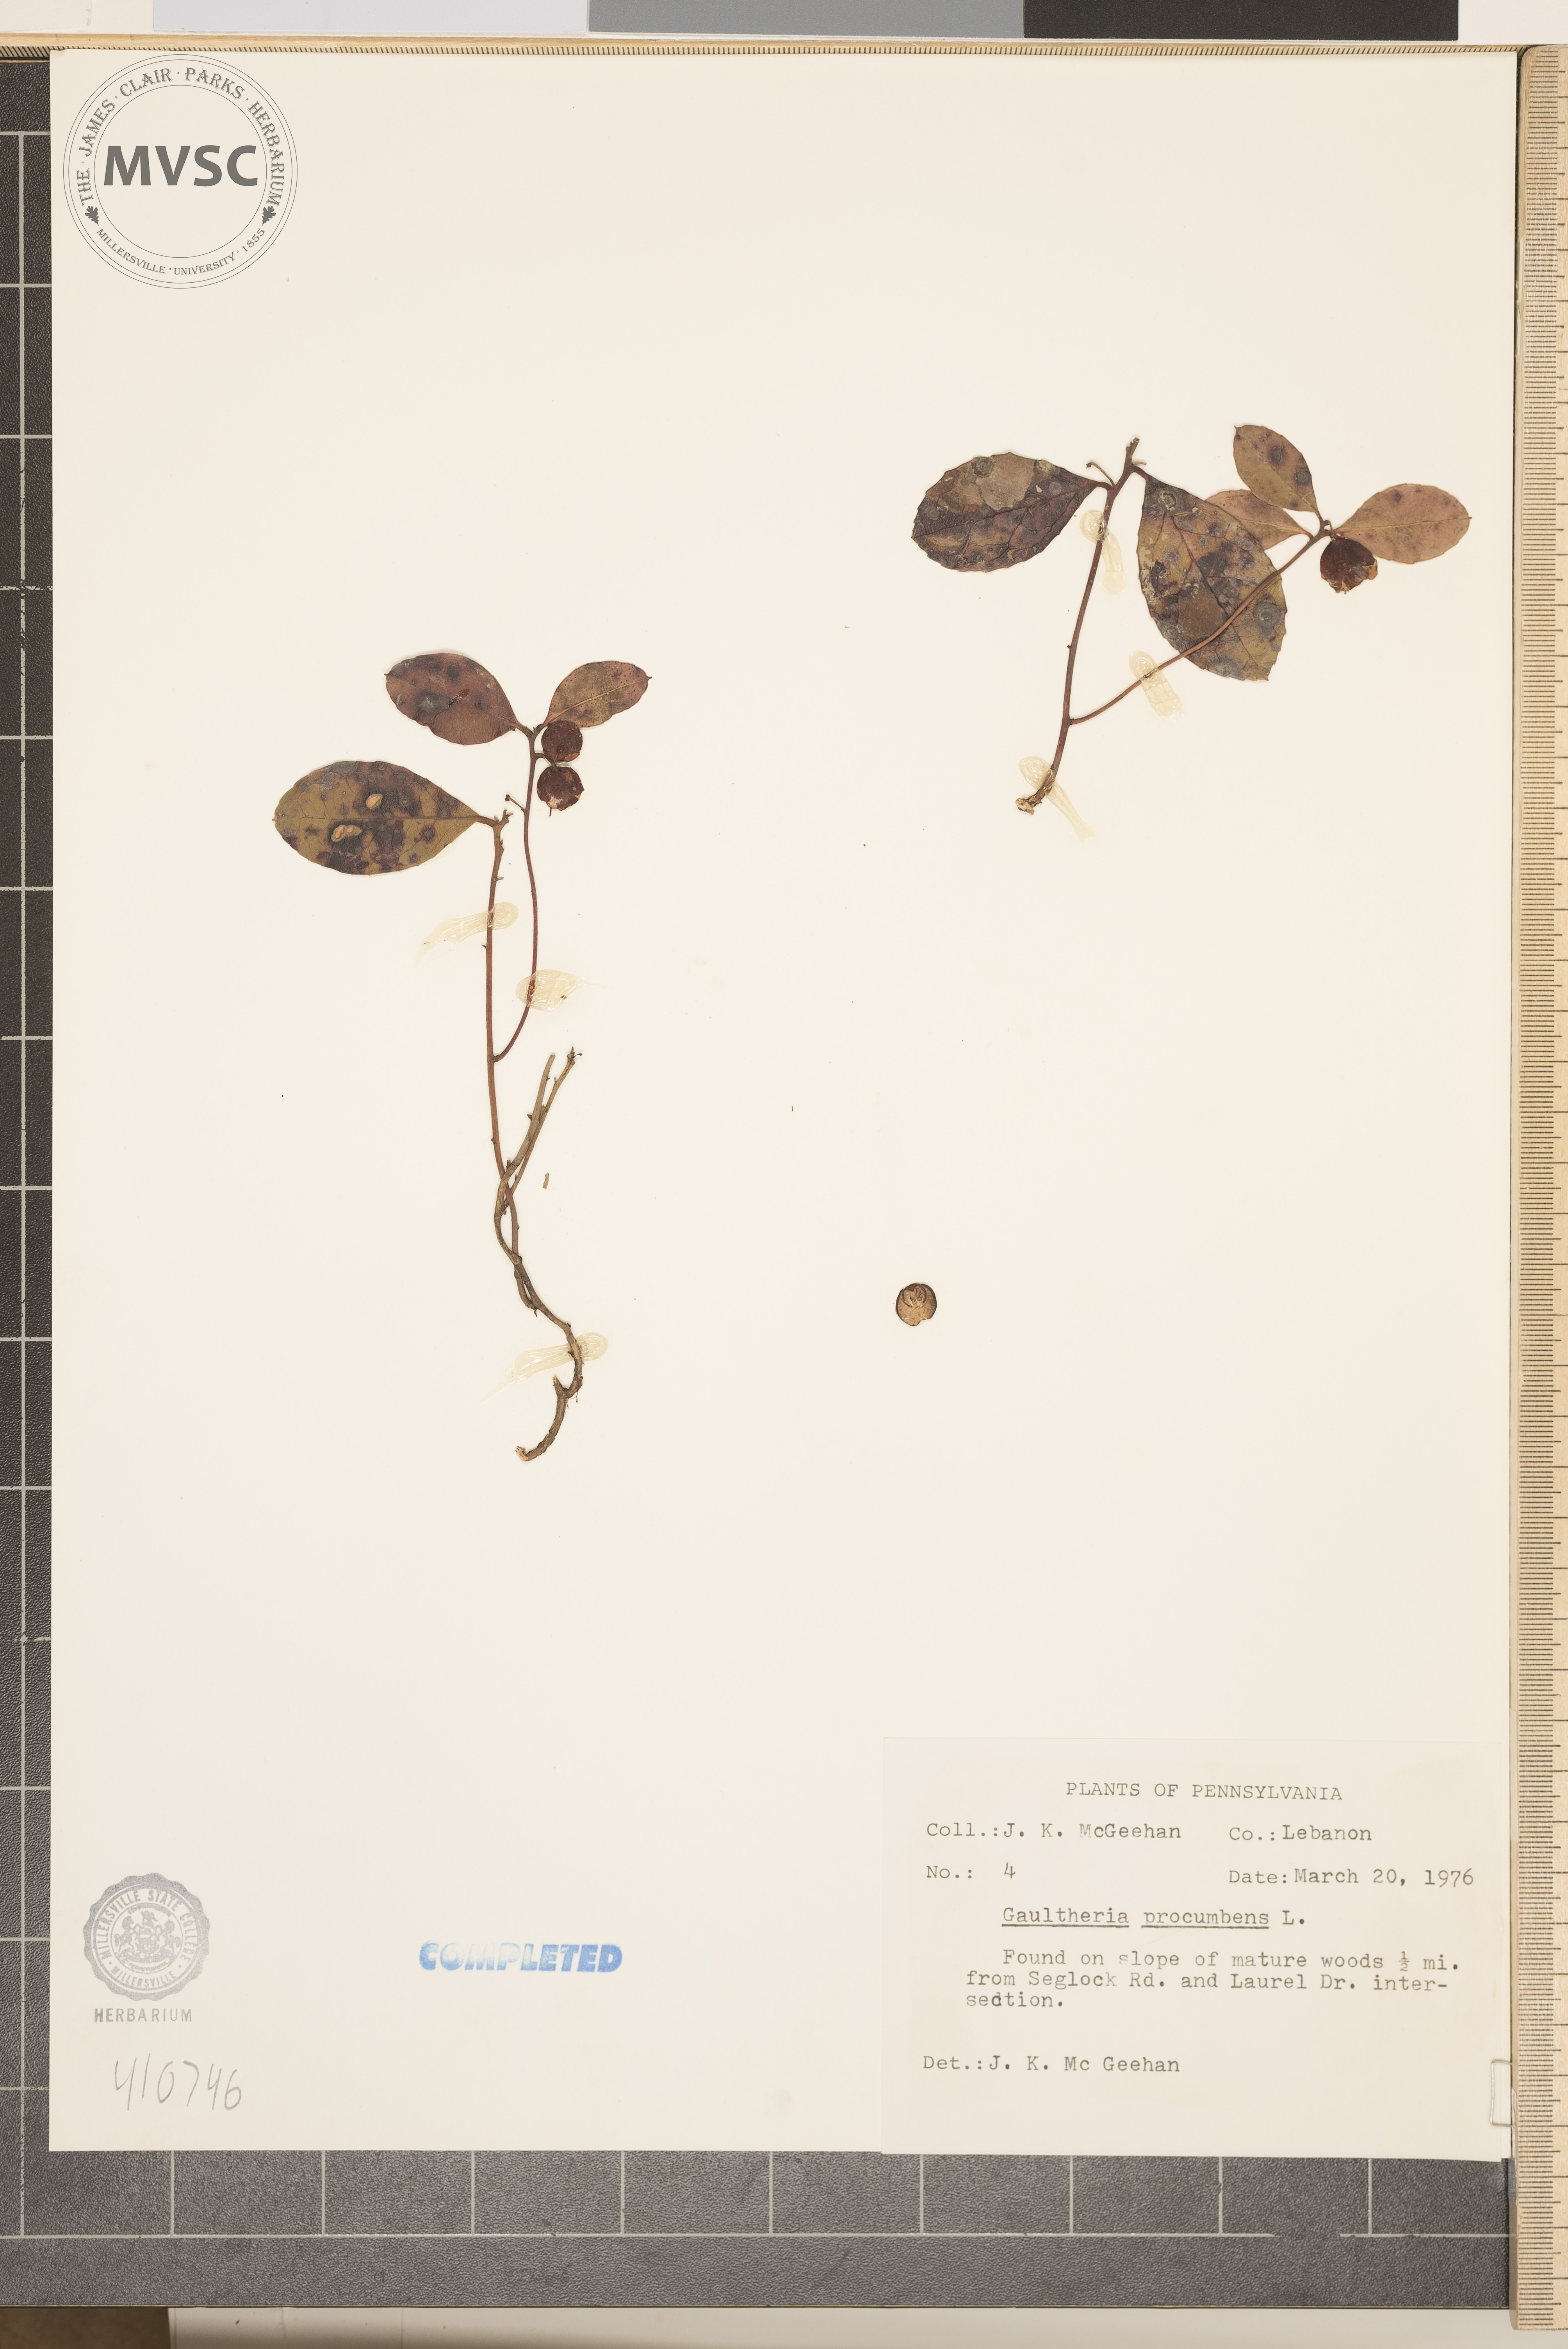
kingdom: Plantae
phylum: Tracheophyta
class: Magnoliopsida
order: Ericales
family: Ericaceae
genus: Gaultheria
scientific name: Gaultheria procumbens
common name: Checkerberry
